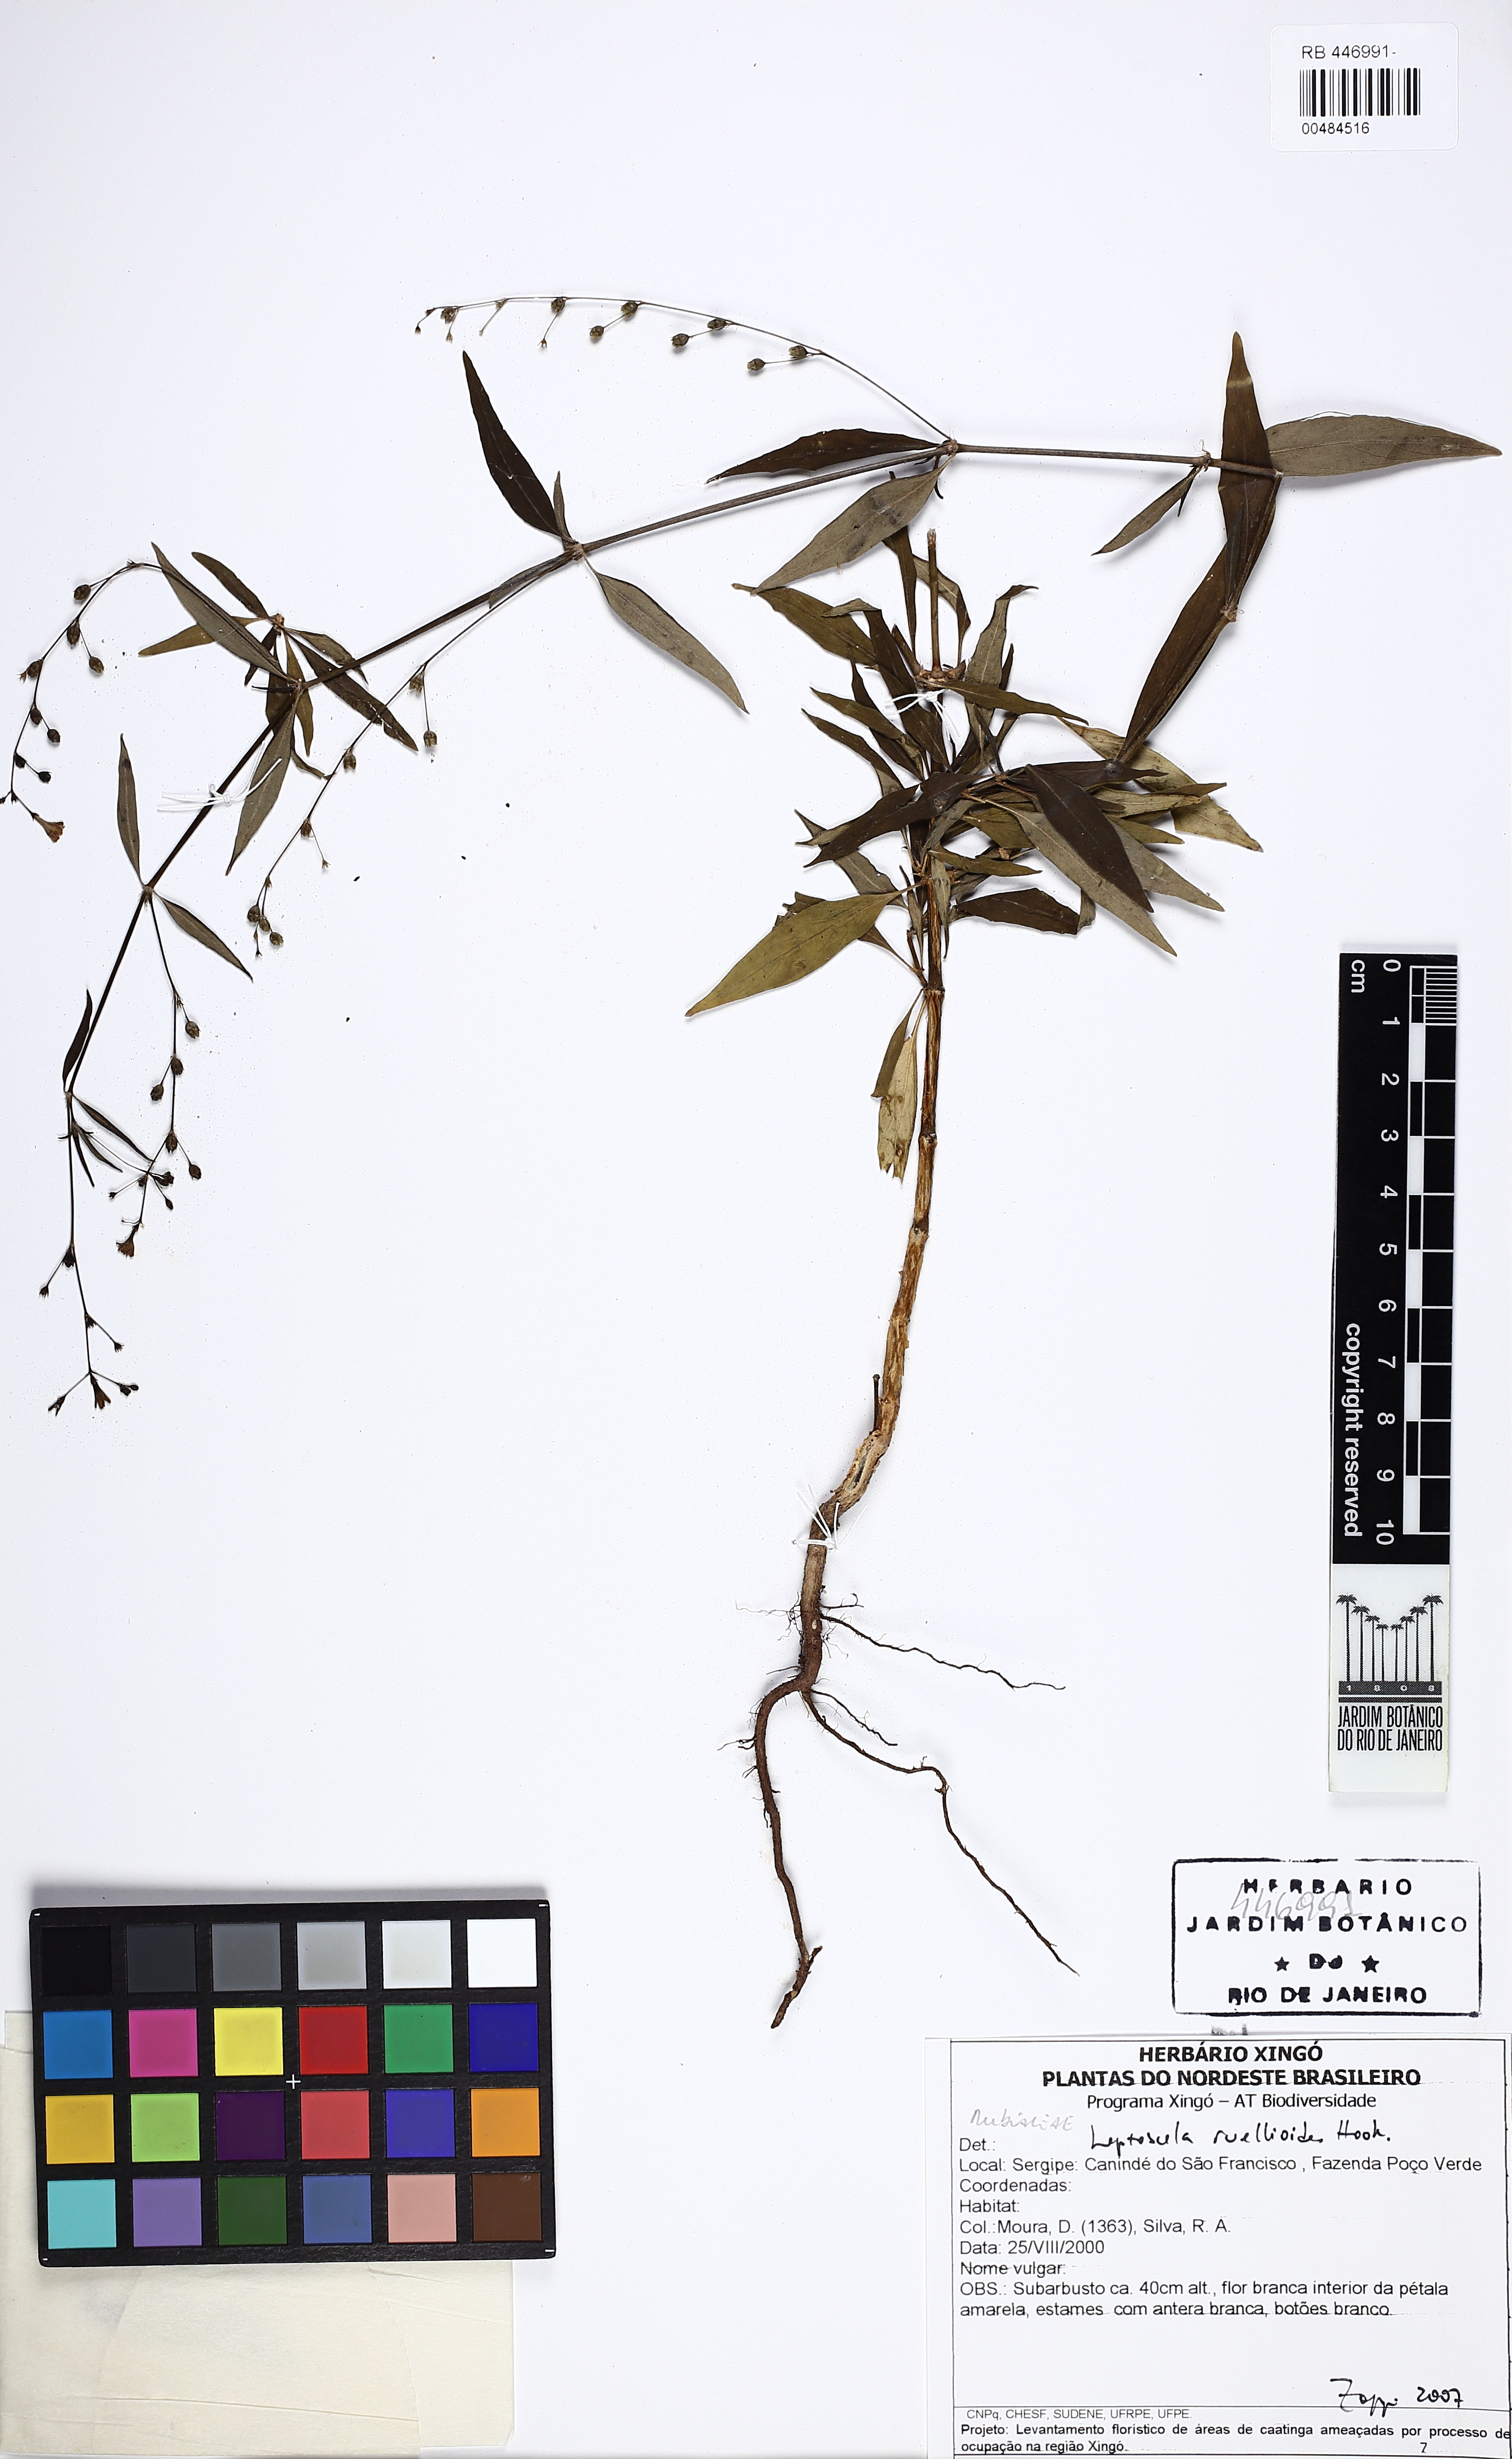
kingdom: Plantae
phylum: Tracheophyta
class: Magnoliopsida
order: Gentianales
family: Rubiaceae
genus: Leptoscela
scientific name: Leptoscela ruellioides
